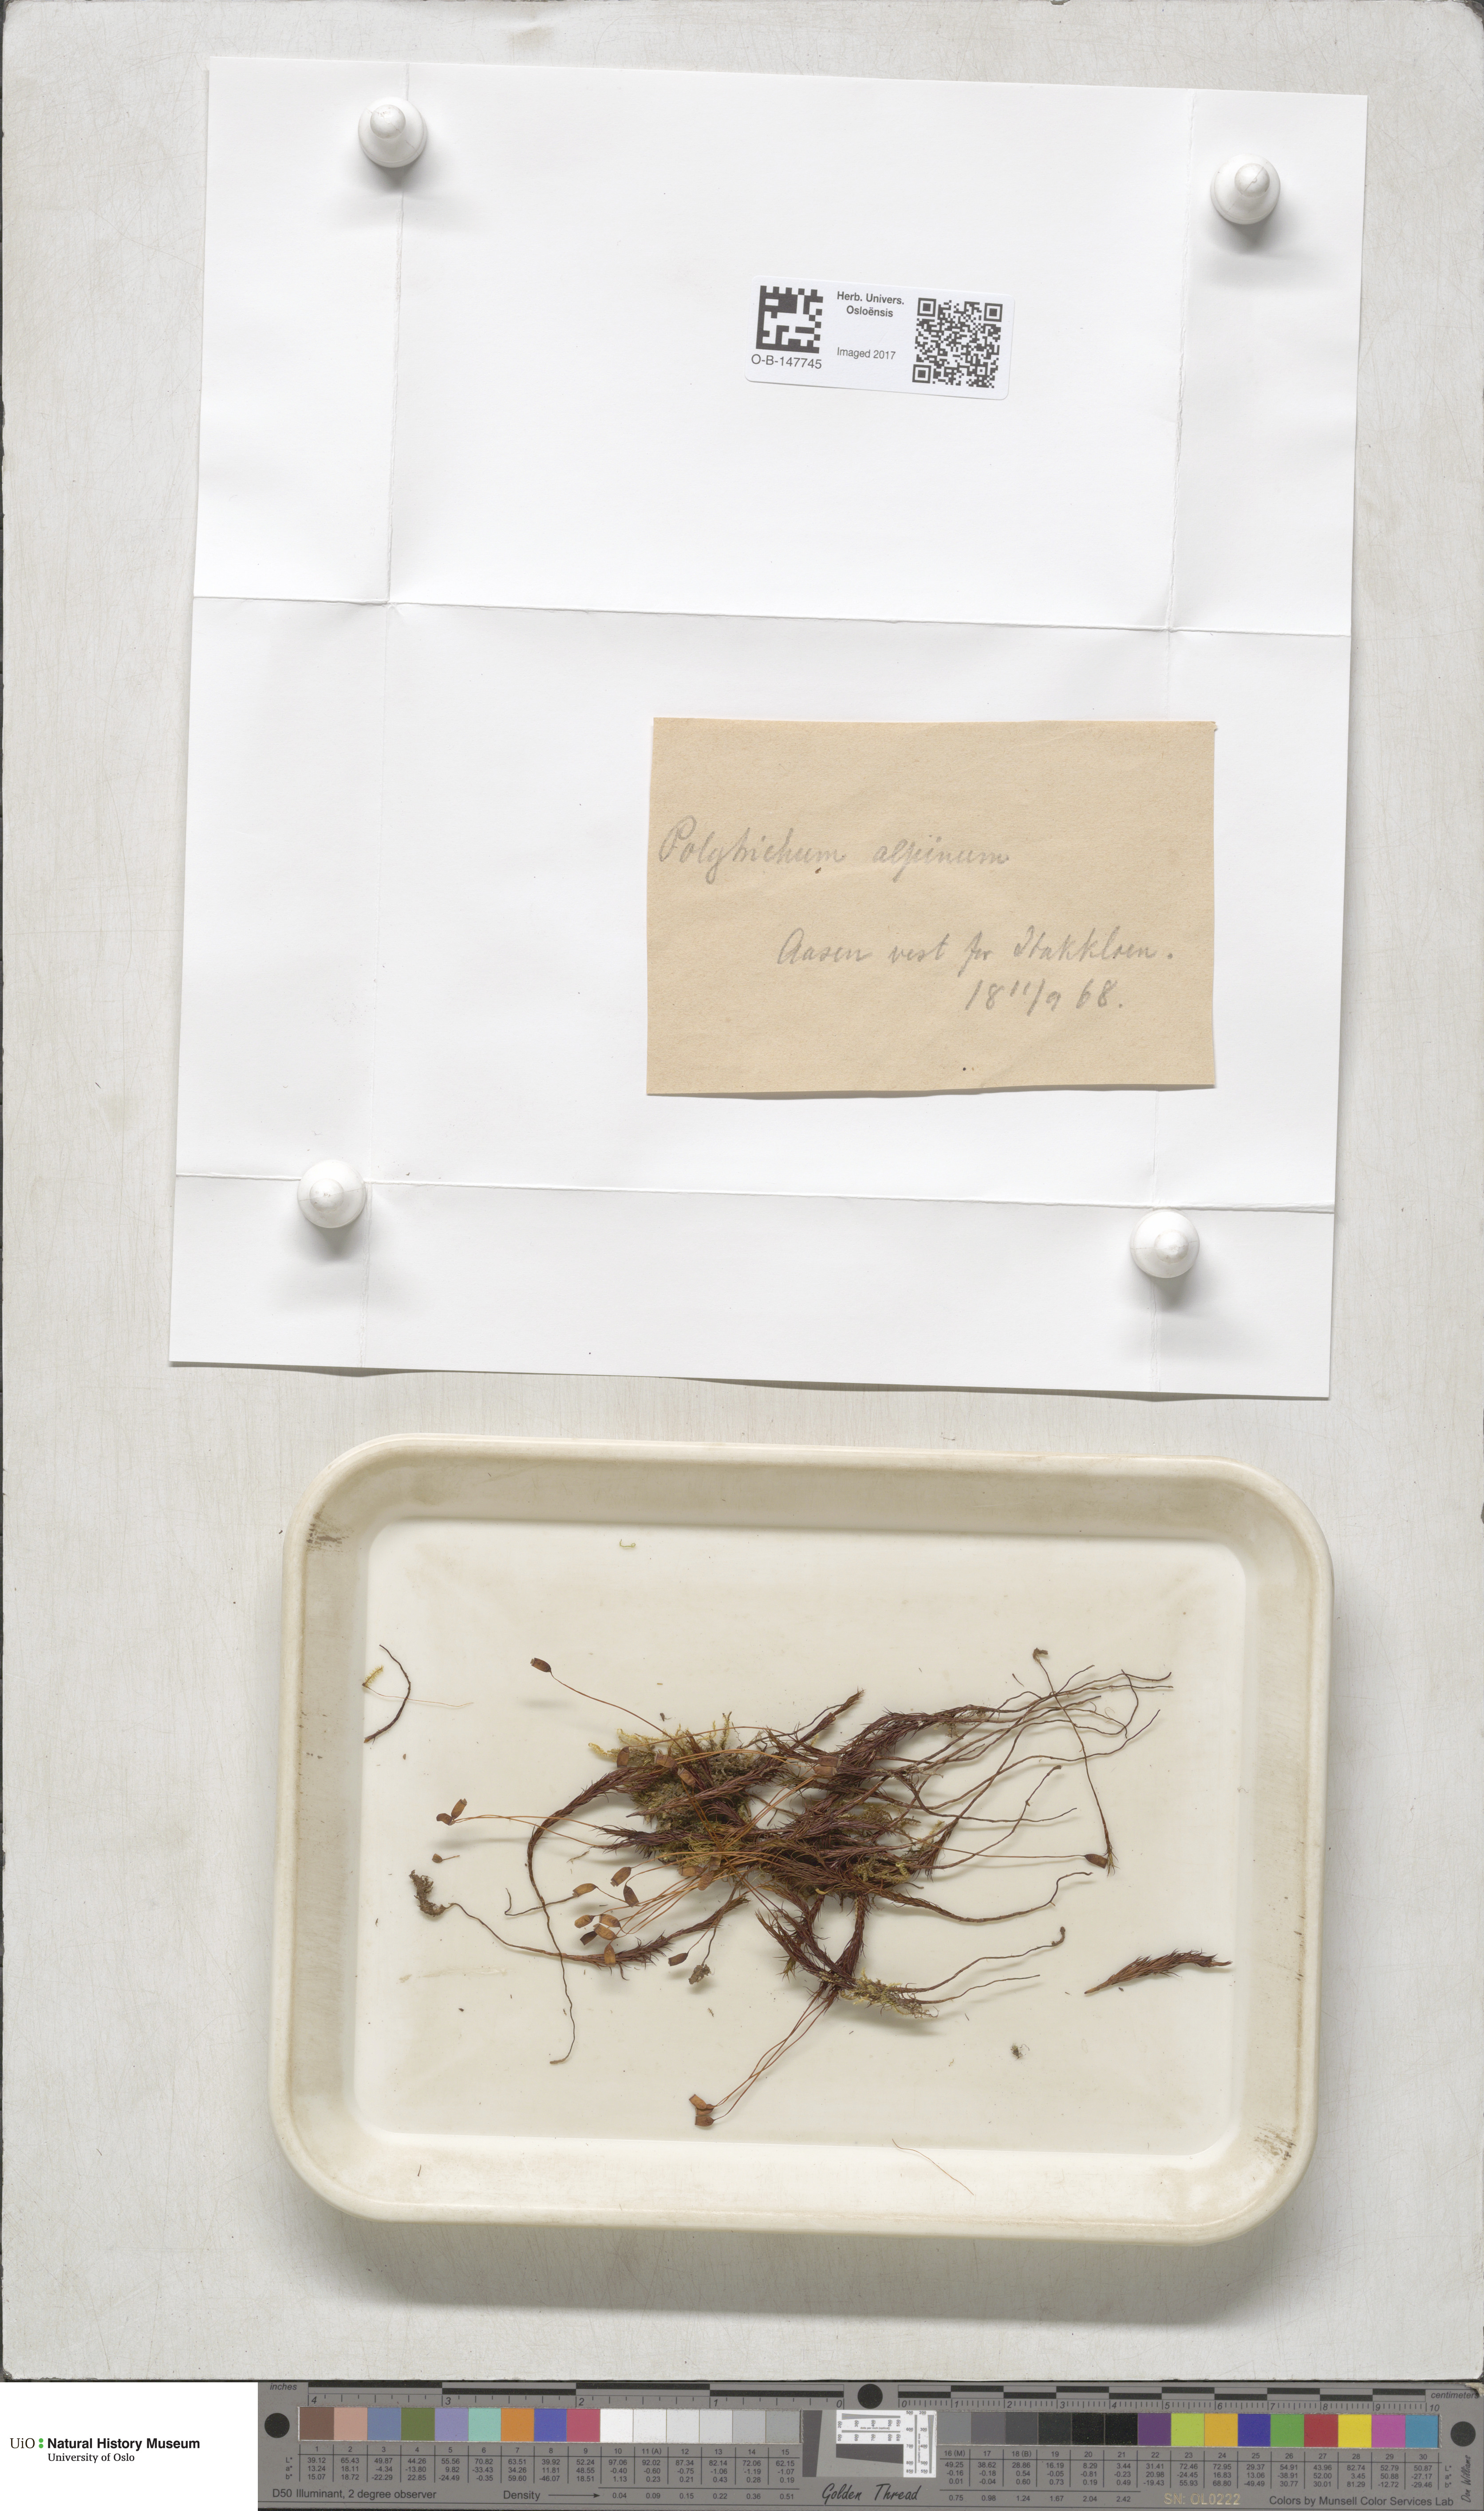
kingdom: Plantae
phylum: Bryophyta
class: Polytrichopsida
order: Polytrichales
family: Polytrichaceae
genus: Polytrichastrum
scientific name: Polytrichastrum alpinum
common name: Alpine haircap
